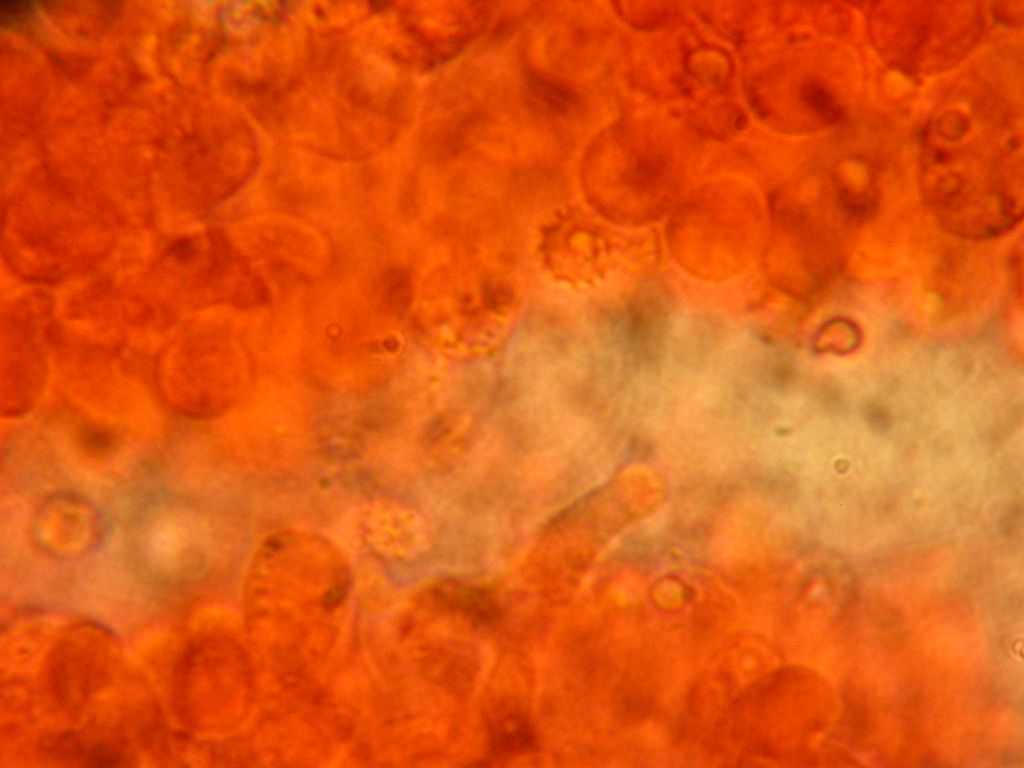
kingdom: Fungi
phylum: Basidiomycota
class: Agaricomycetes
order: Russulales
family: Xenasmataceae
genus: Xenasmatella
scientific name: Xenasmatella vaga
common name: svovl-strenghinde
